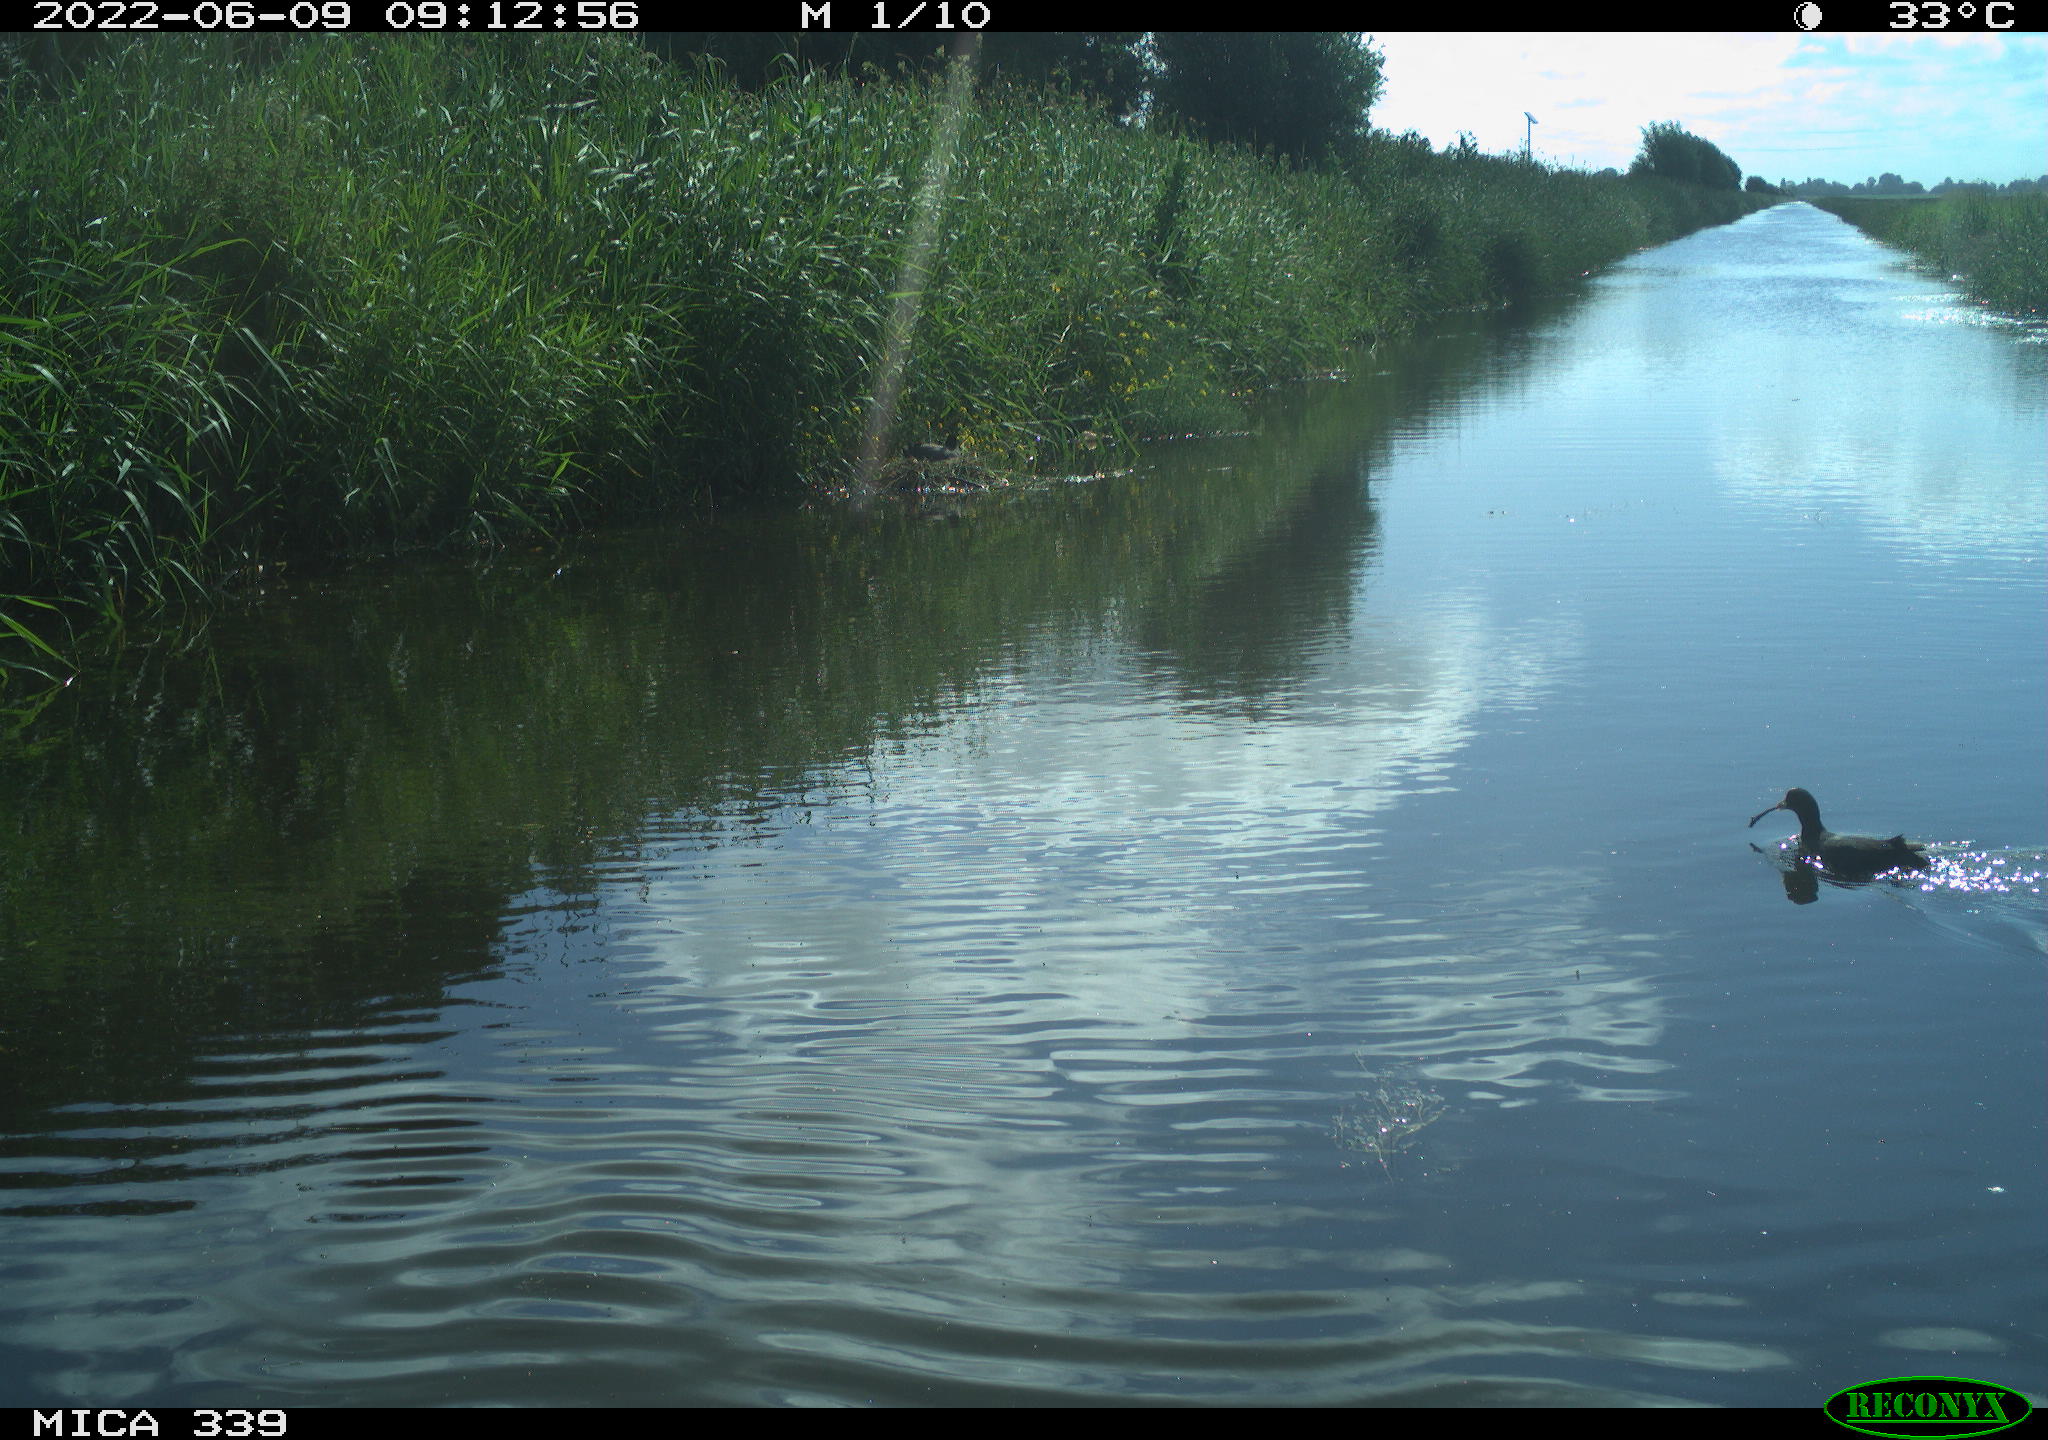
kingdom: Animalia
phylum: Chordata
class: Aves
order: Gruiformes
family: Rallidae
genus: Fulica
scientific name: Fulica atra
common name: Eurasian coot
